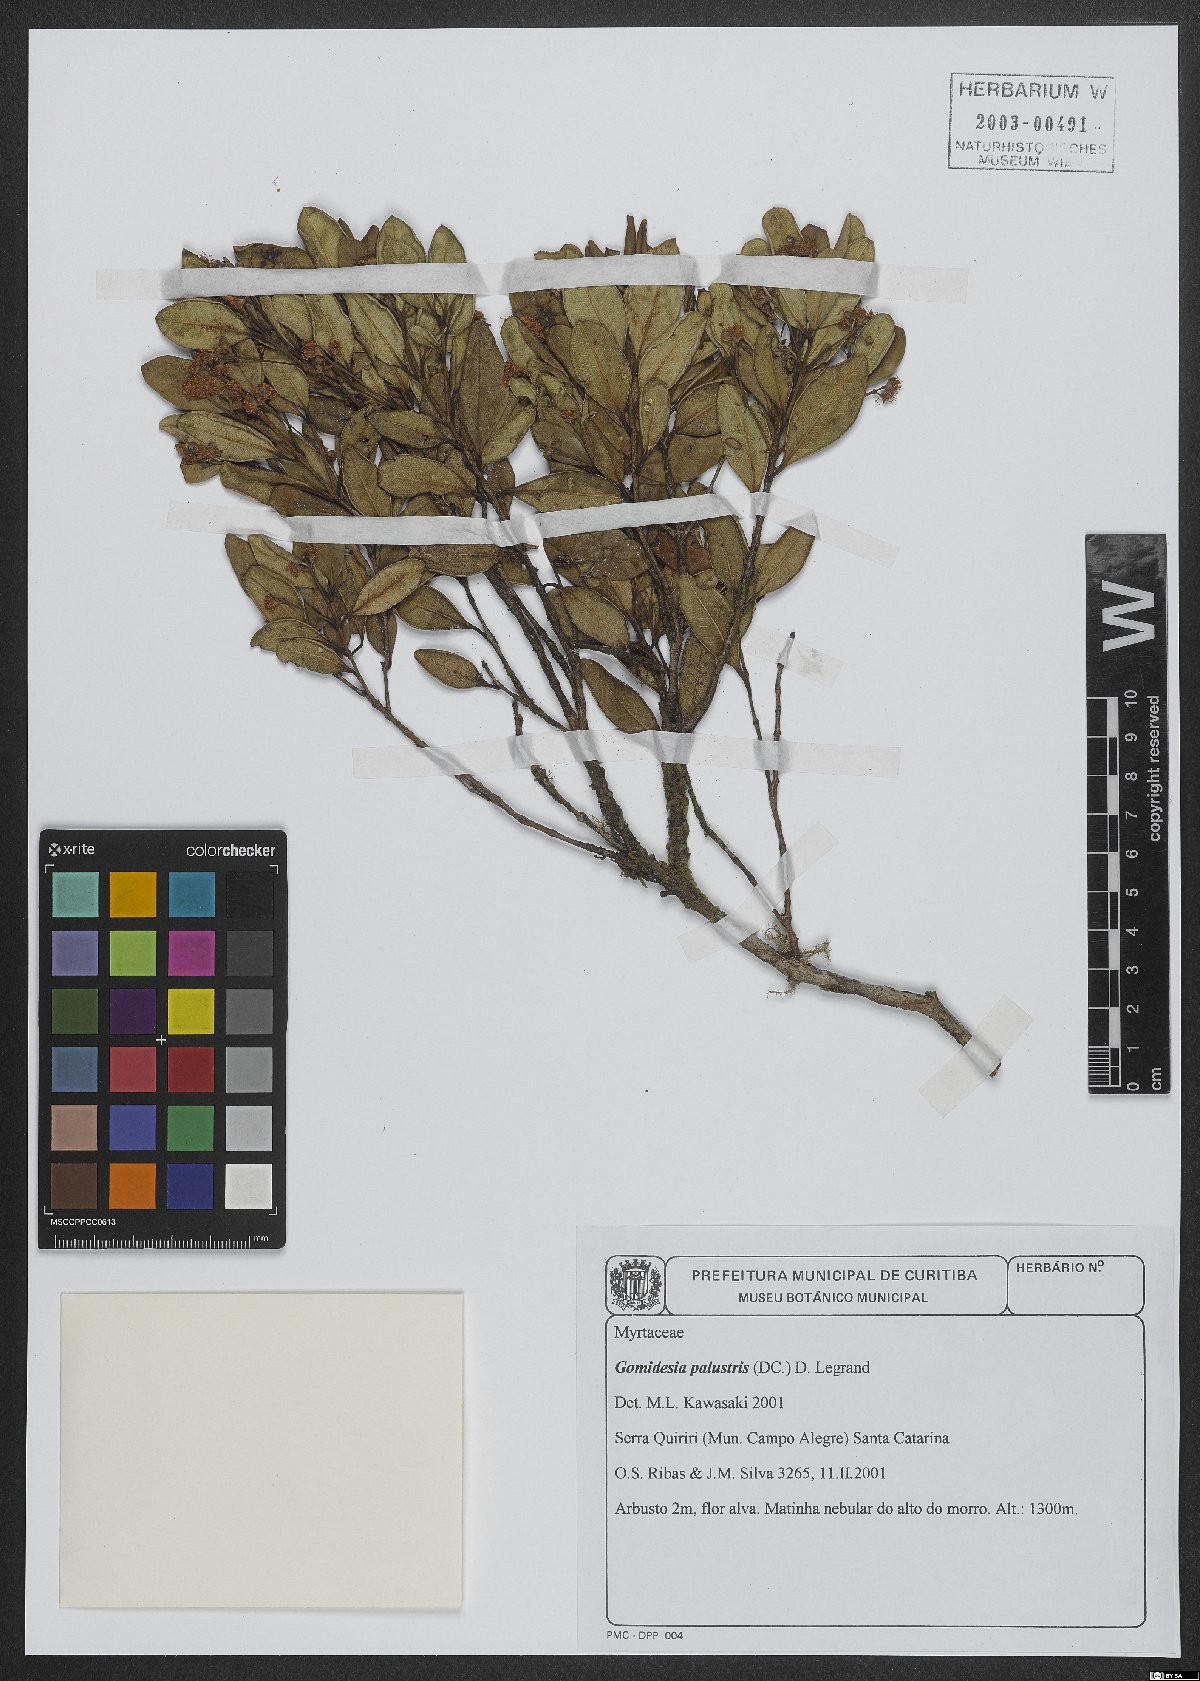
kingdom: Plantae
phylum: Tracheophyta
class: Magnoliopsida
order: Myrtales
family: Myrtaceae
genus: Myrcia
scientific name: Myrcia palustris
